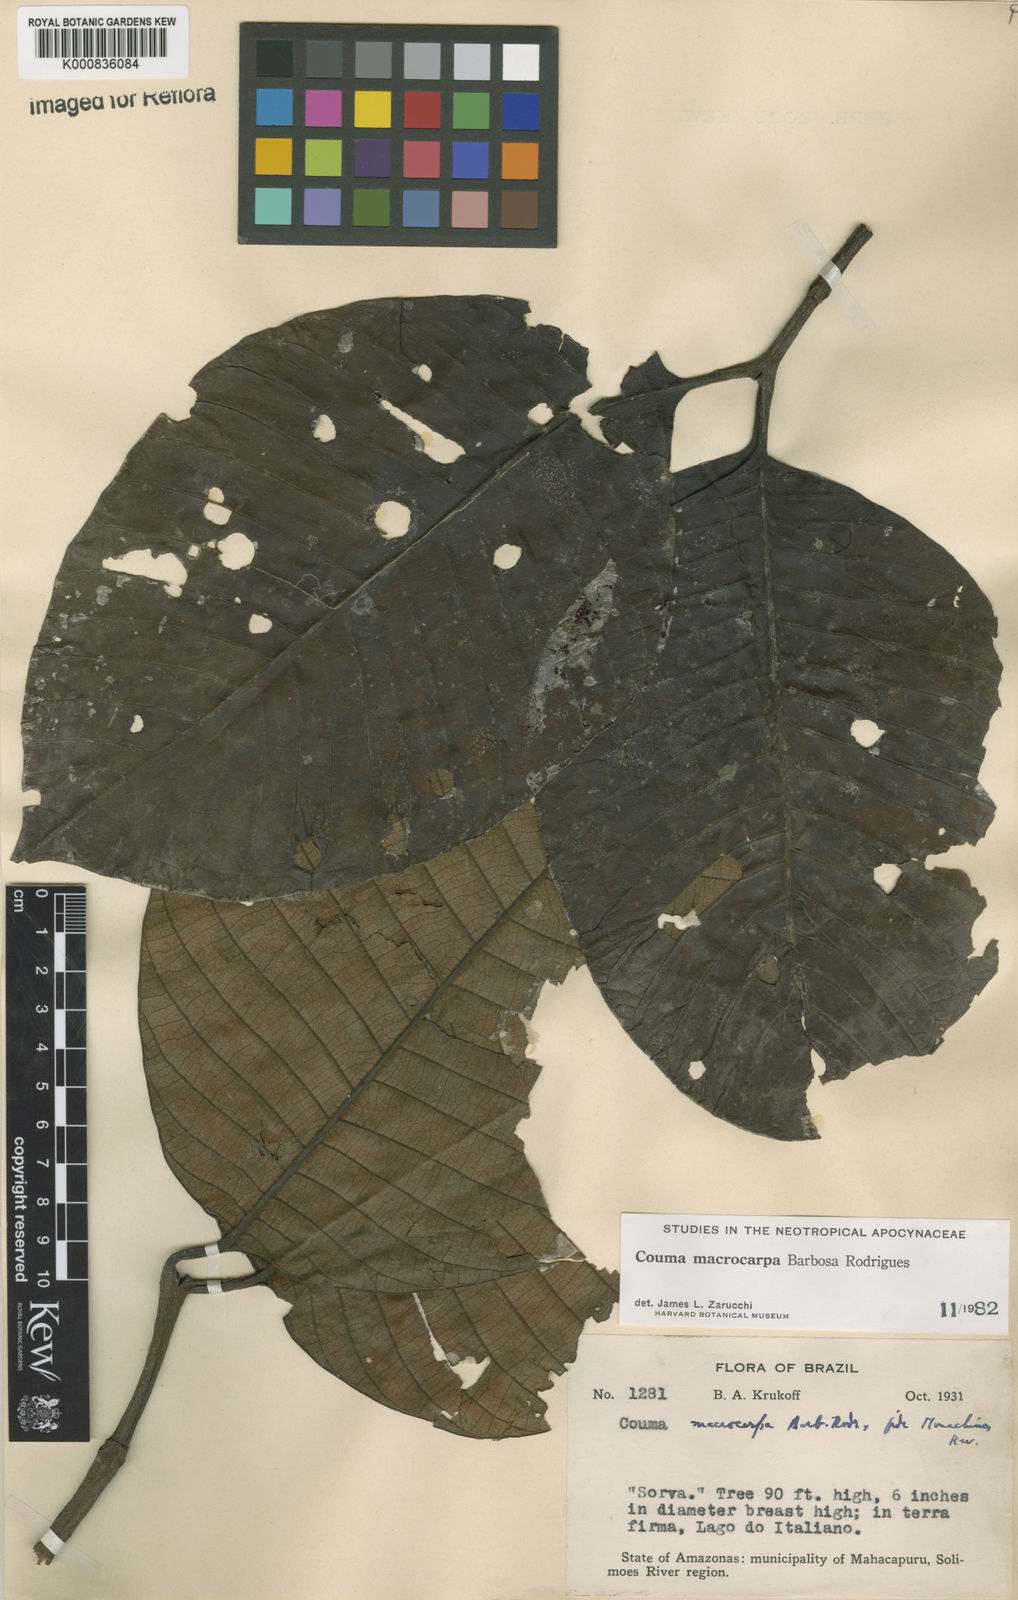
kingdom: Plantae
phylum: Tracheophyta
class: Magnoliopsida
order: Gentianales
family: Apocynaceae
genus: Couma
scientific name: Couma macrocarpa
